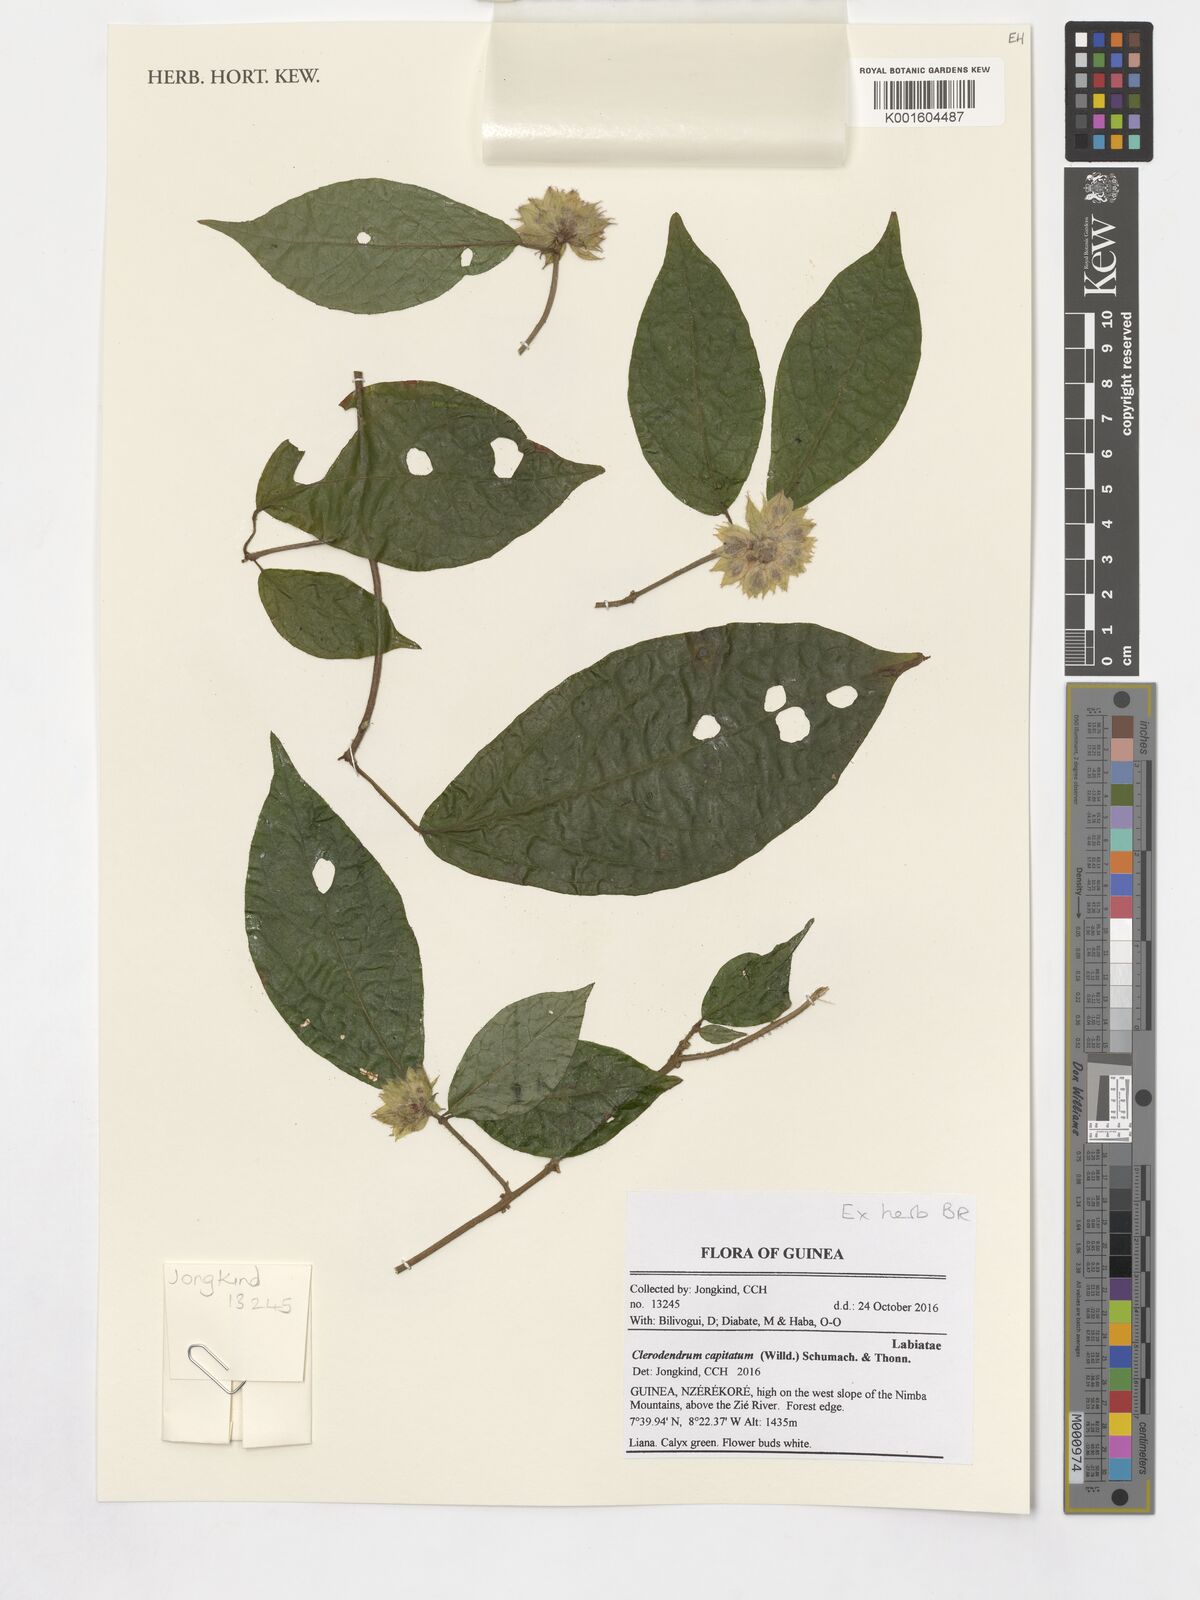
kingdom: Plantae
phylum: Tracheophyta
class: Magnoliopsida
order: Lamiales
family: Lamiaceae
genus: Clerodendrum
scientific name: Clerodendrum capitatum
